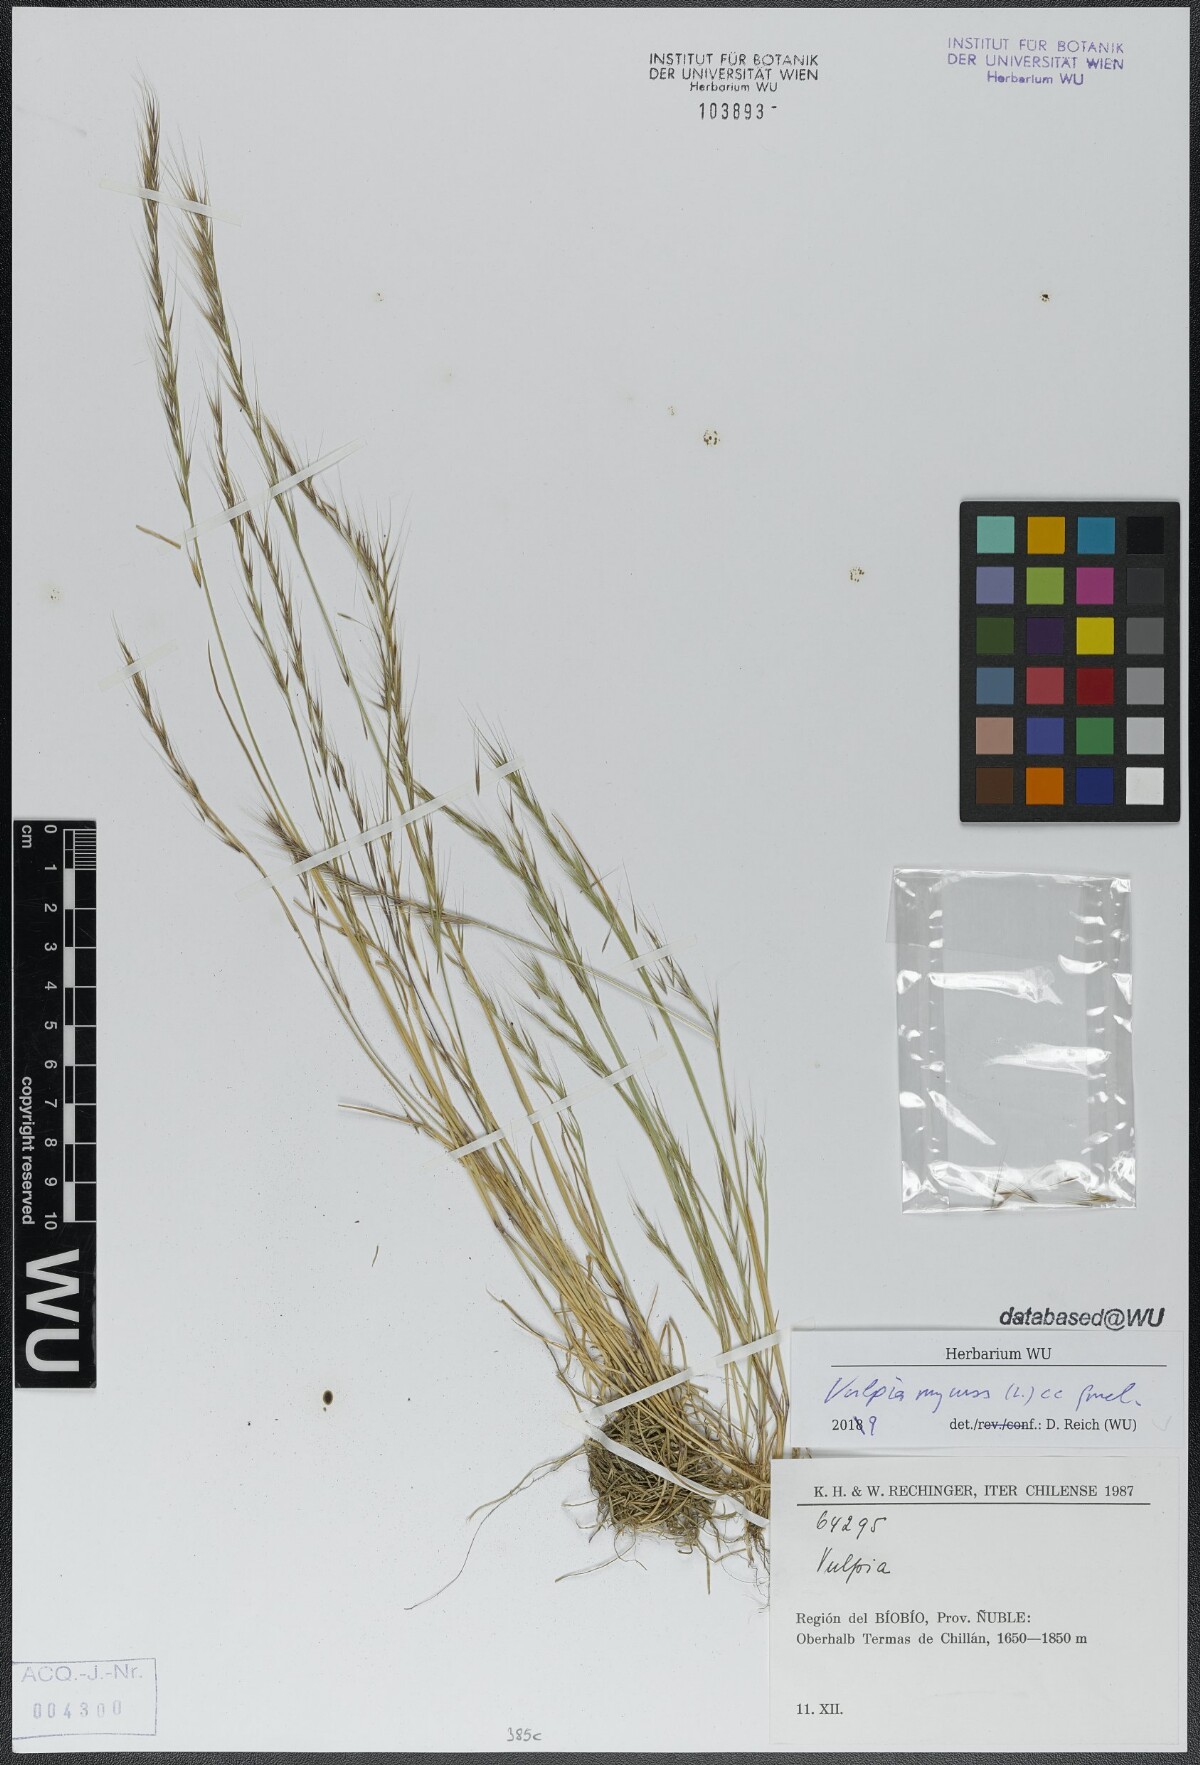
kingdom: Plantae
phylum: Tracheophyta
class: Liliopsida
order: Poales
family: Poaceae
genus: Festuca
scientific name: Festuca myuros
